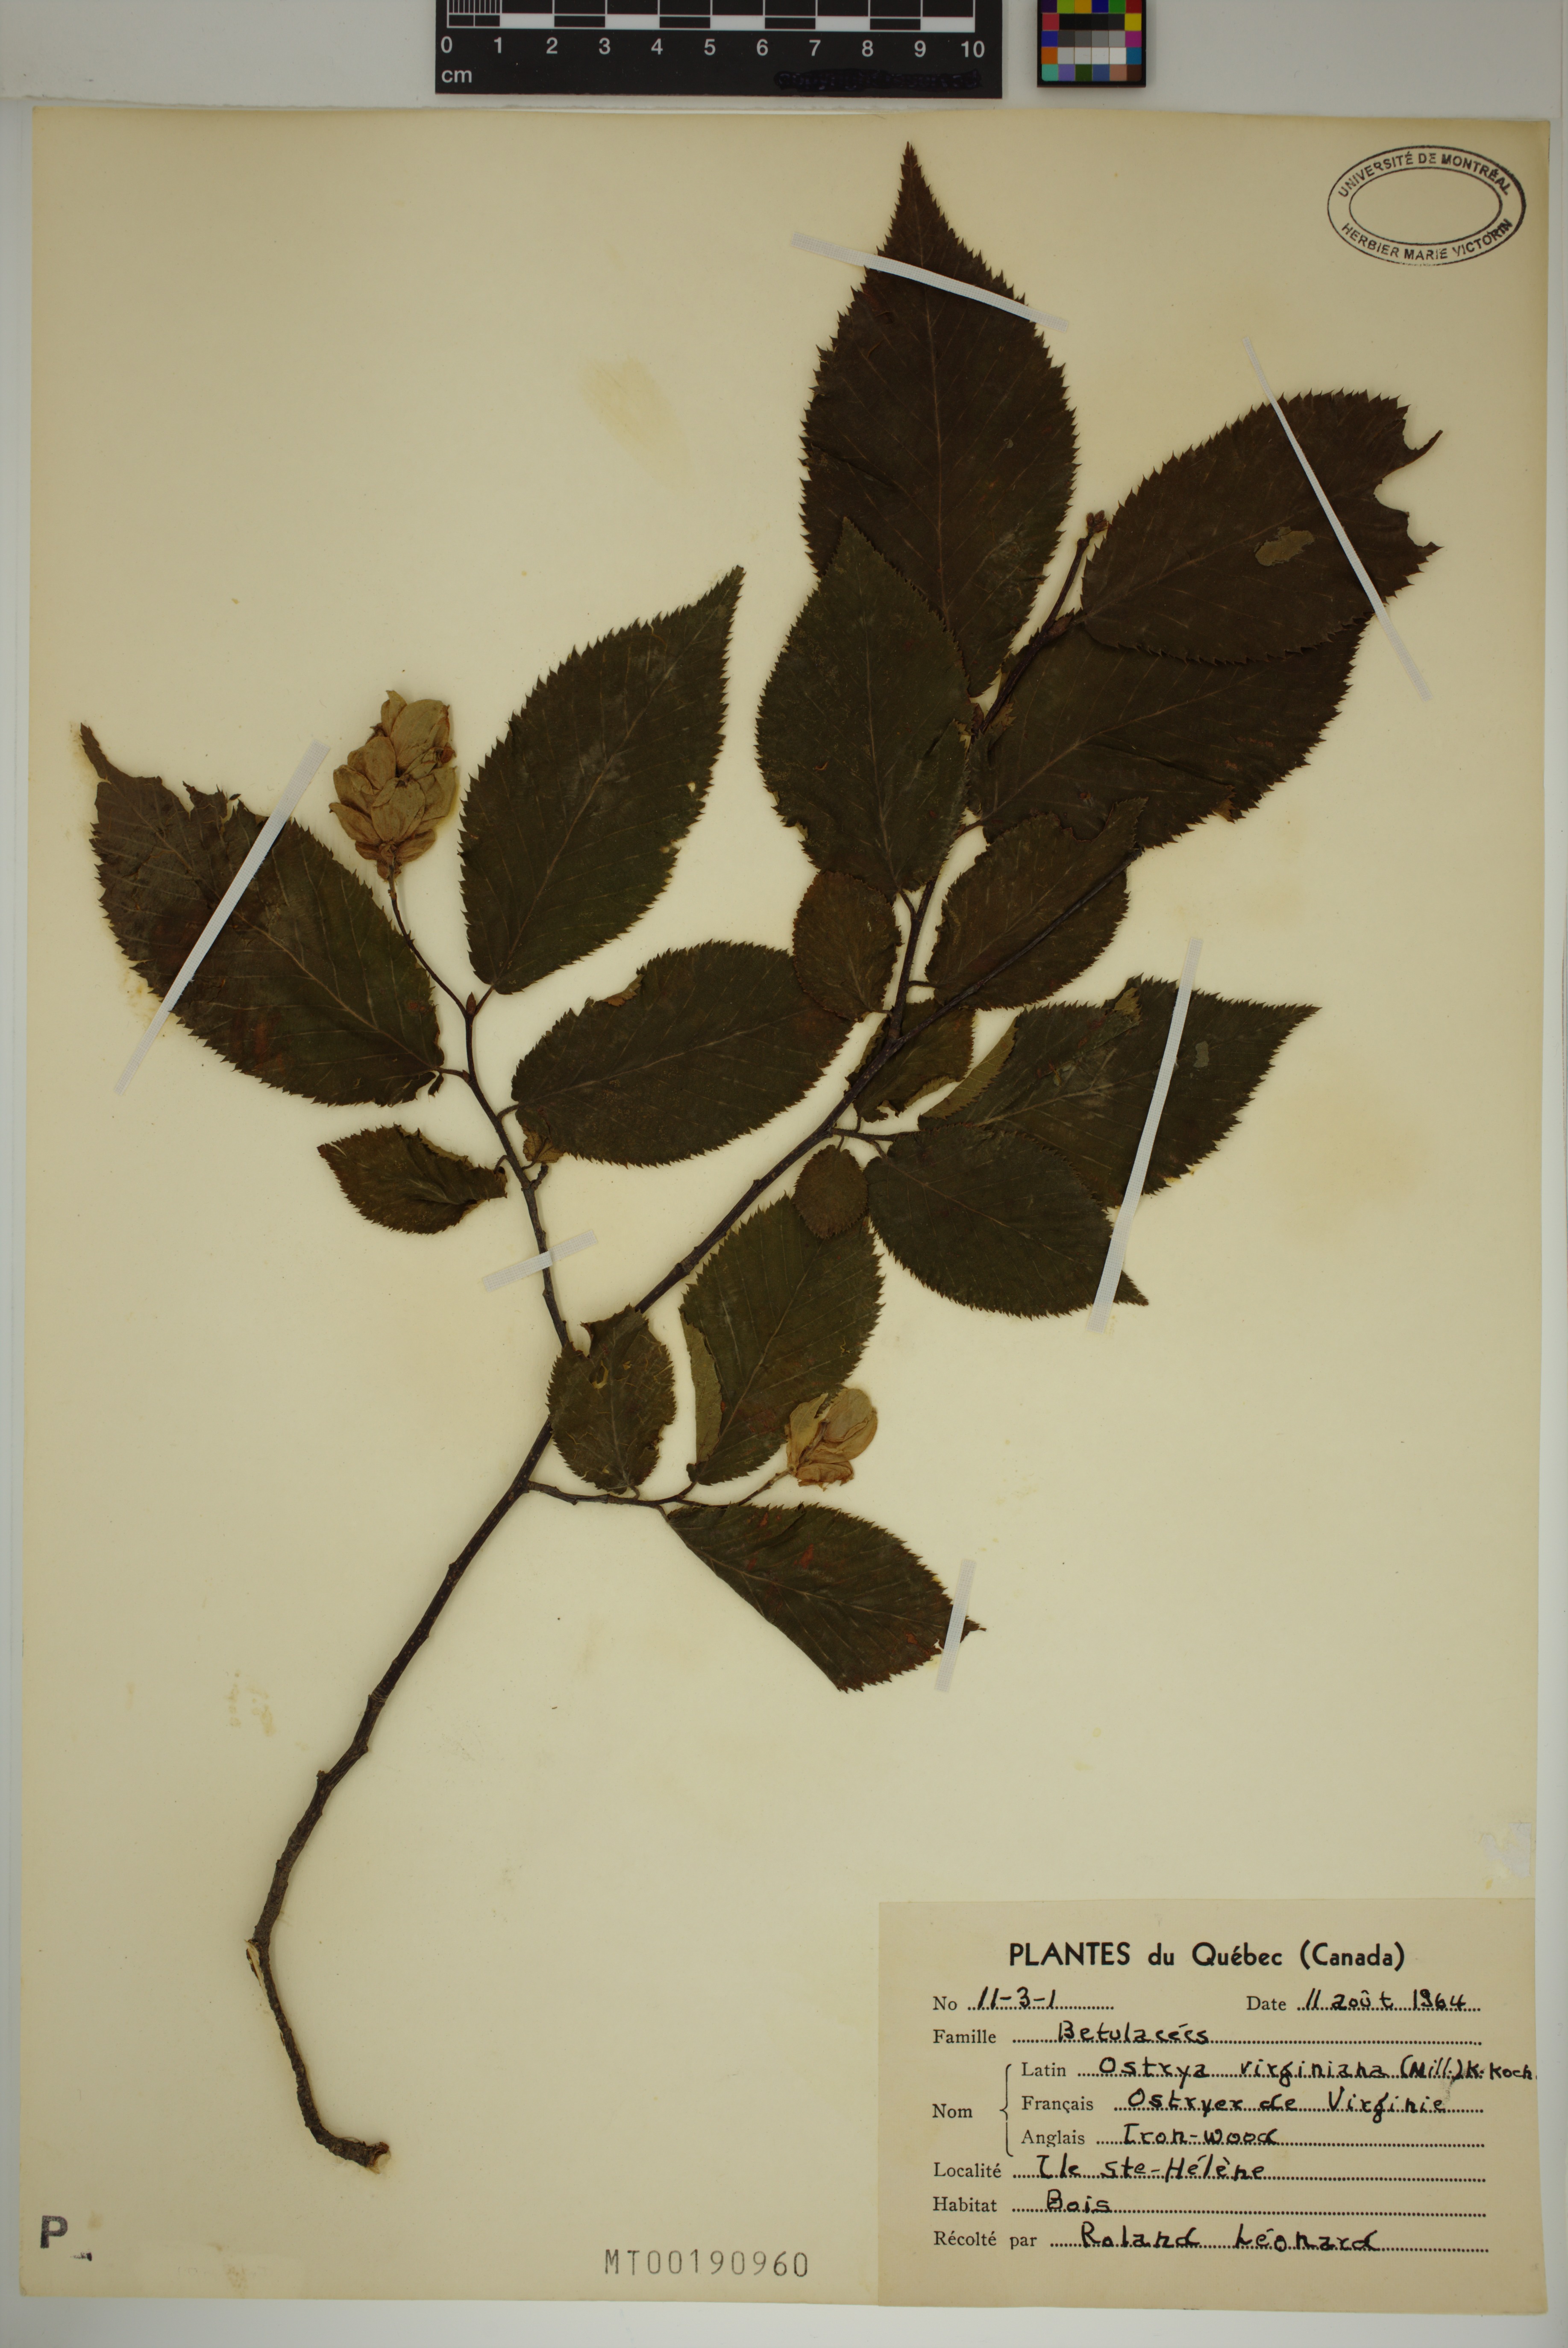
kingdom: Plantae
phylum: Tracheophyta
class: Magnoliopsida
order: Fagales
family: Betulaceae
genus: Ostrya
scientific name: Ostrya virginiana
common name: Ironwood
